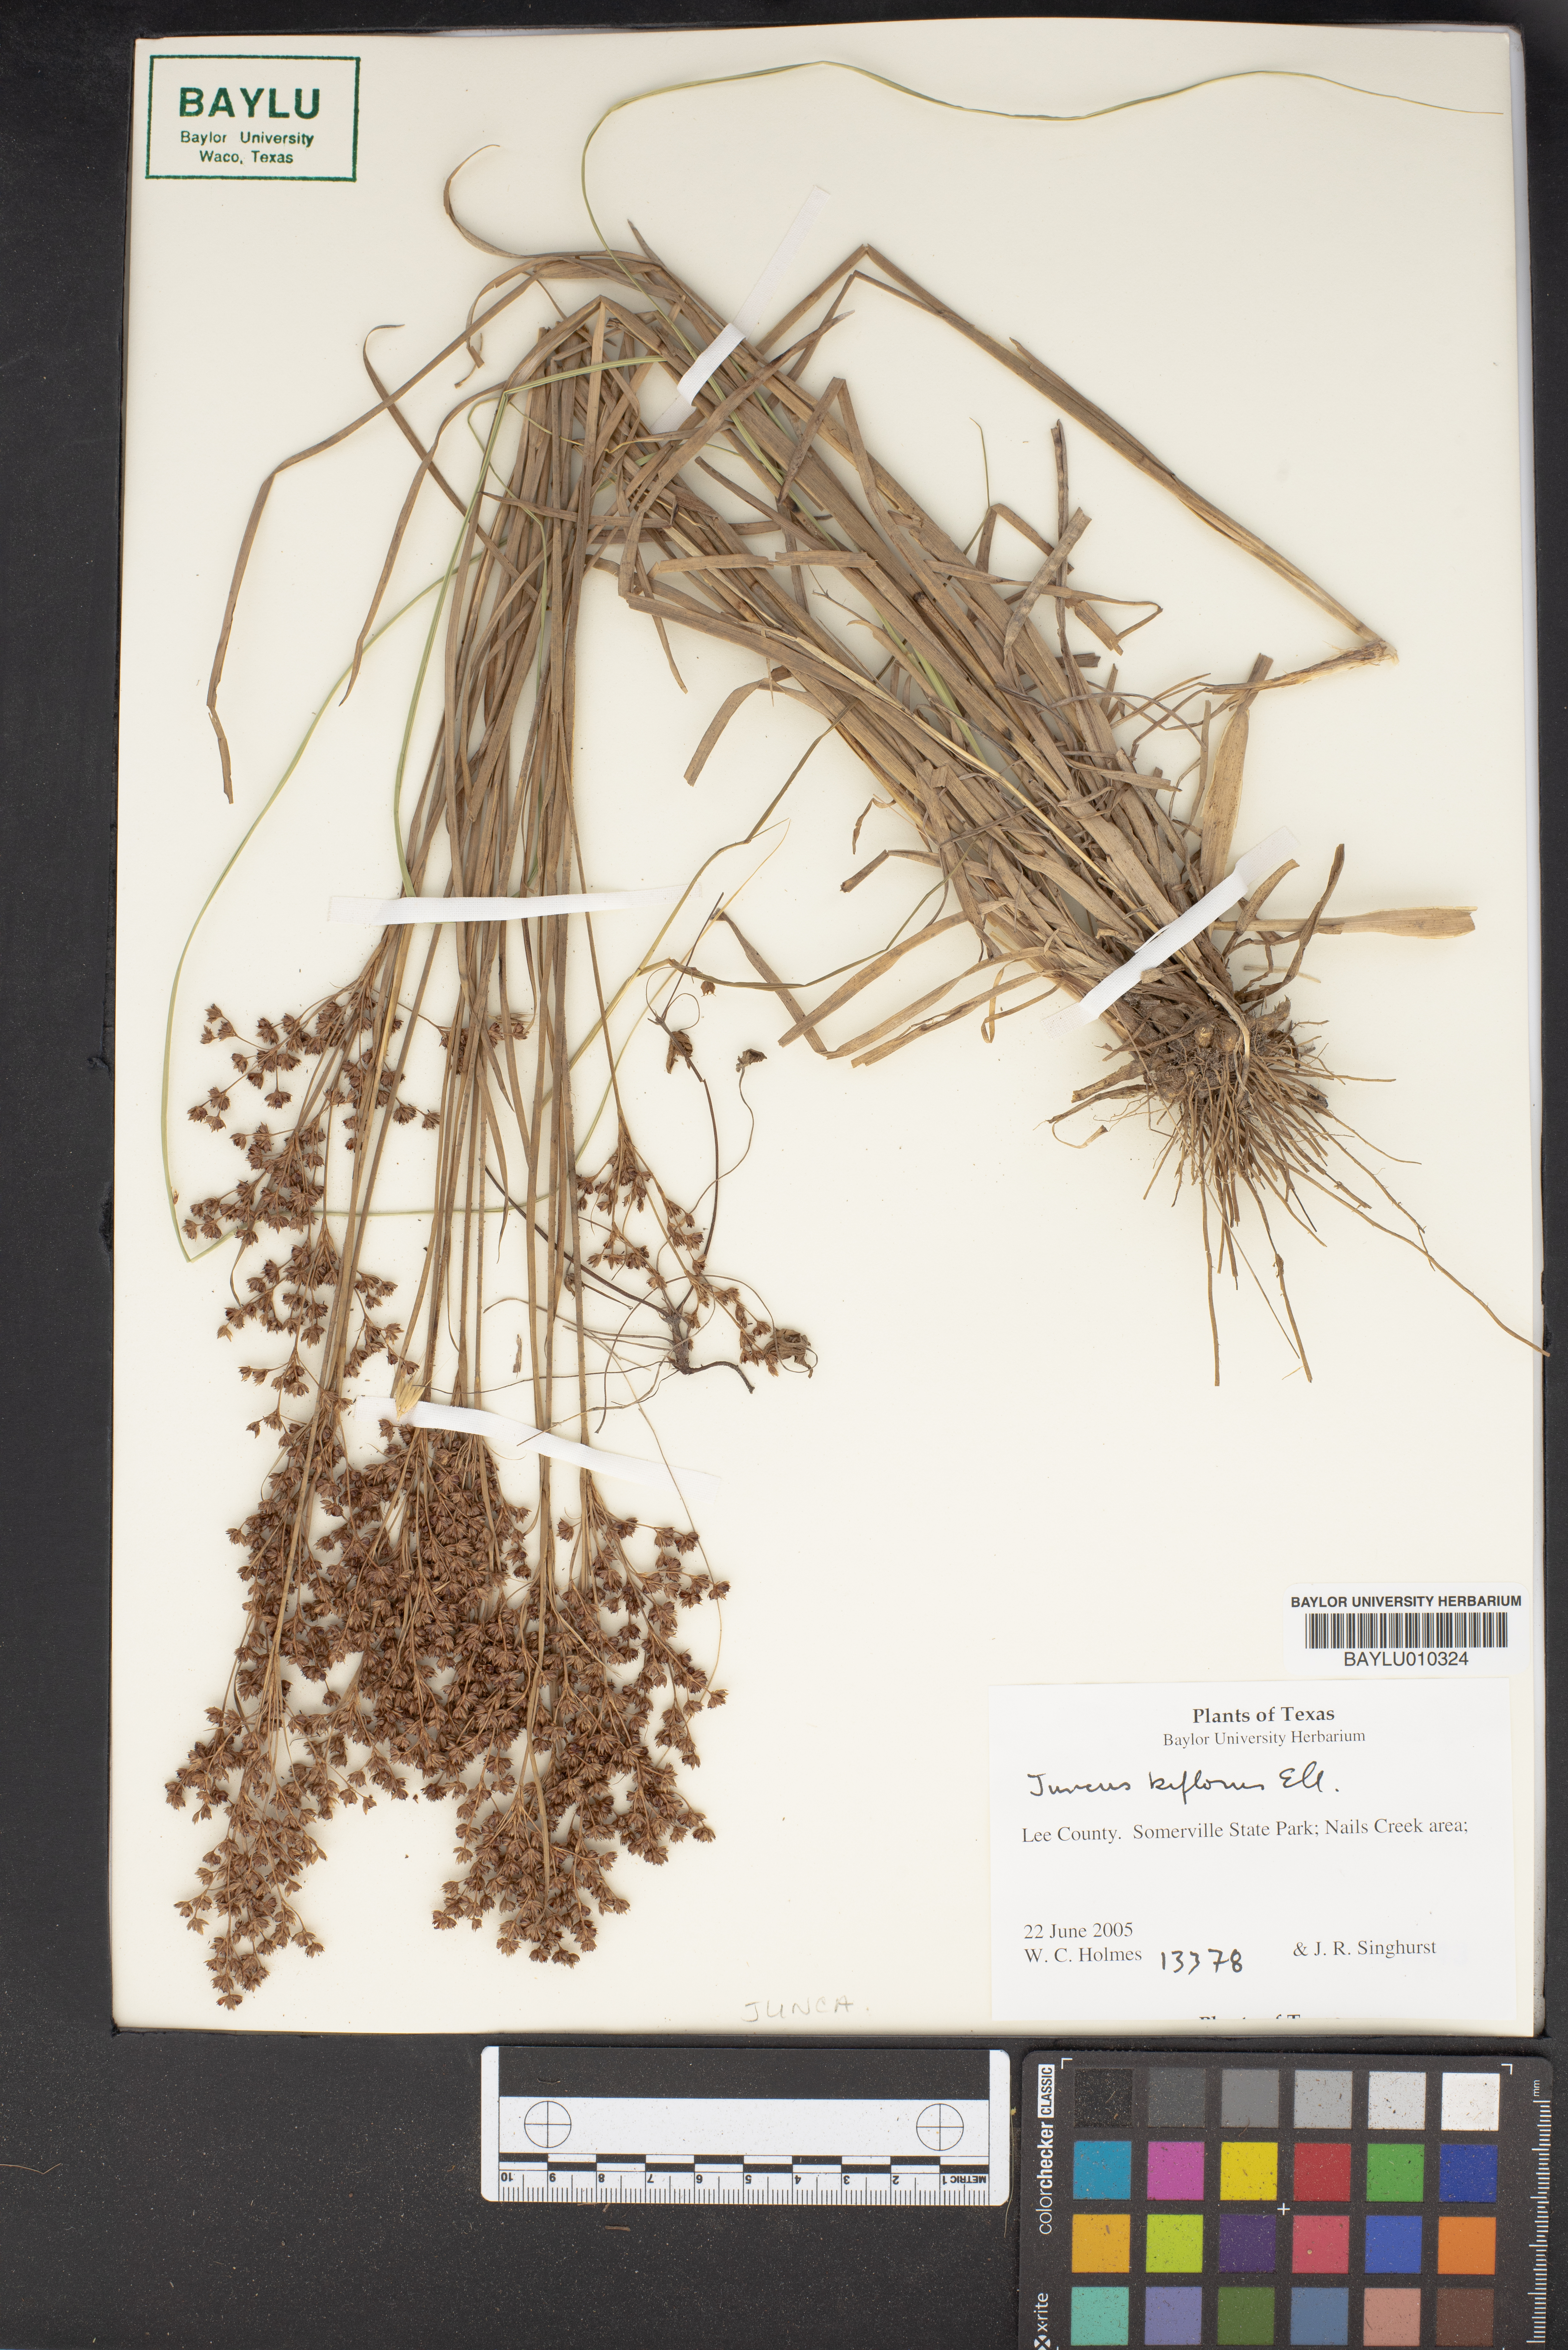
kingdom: Plantae
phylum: Tracheophyta
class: Liliopsida
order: Poales
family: Juncaceae
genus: Juncus
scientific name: Juncus biflorus
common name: Two-flowered rush
